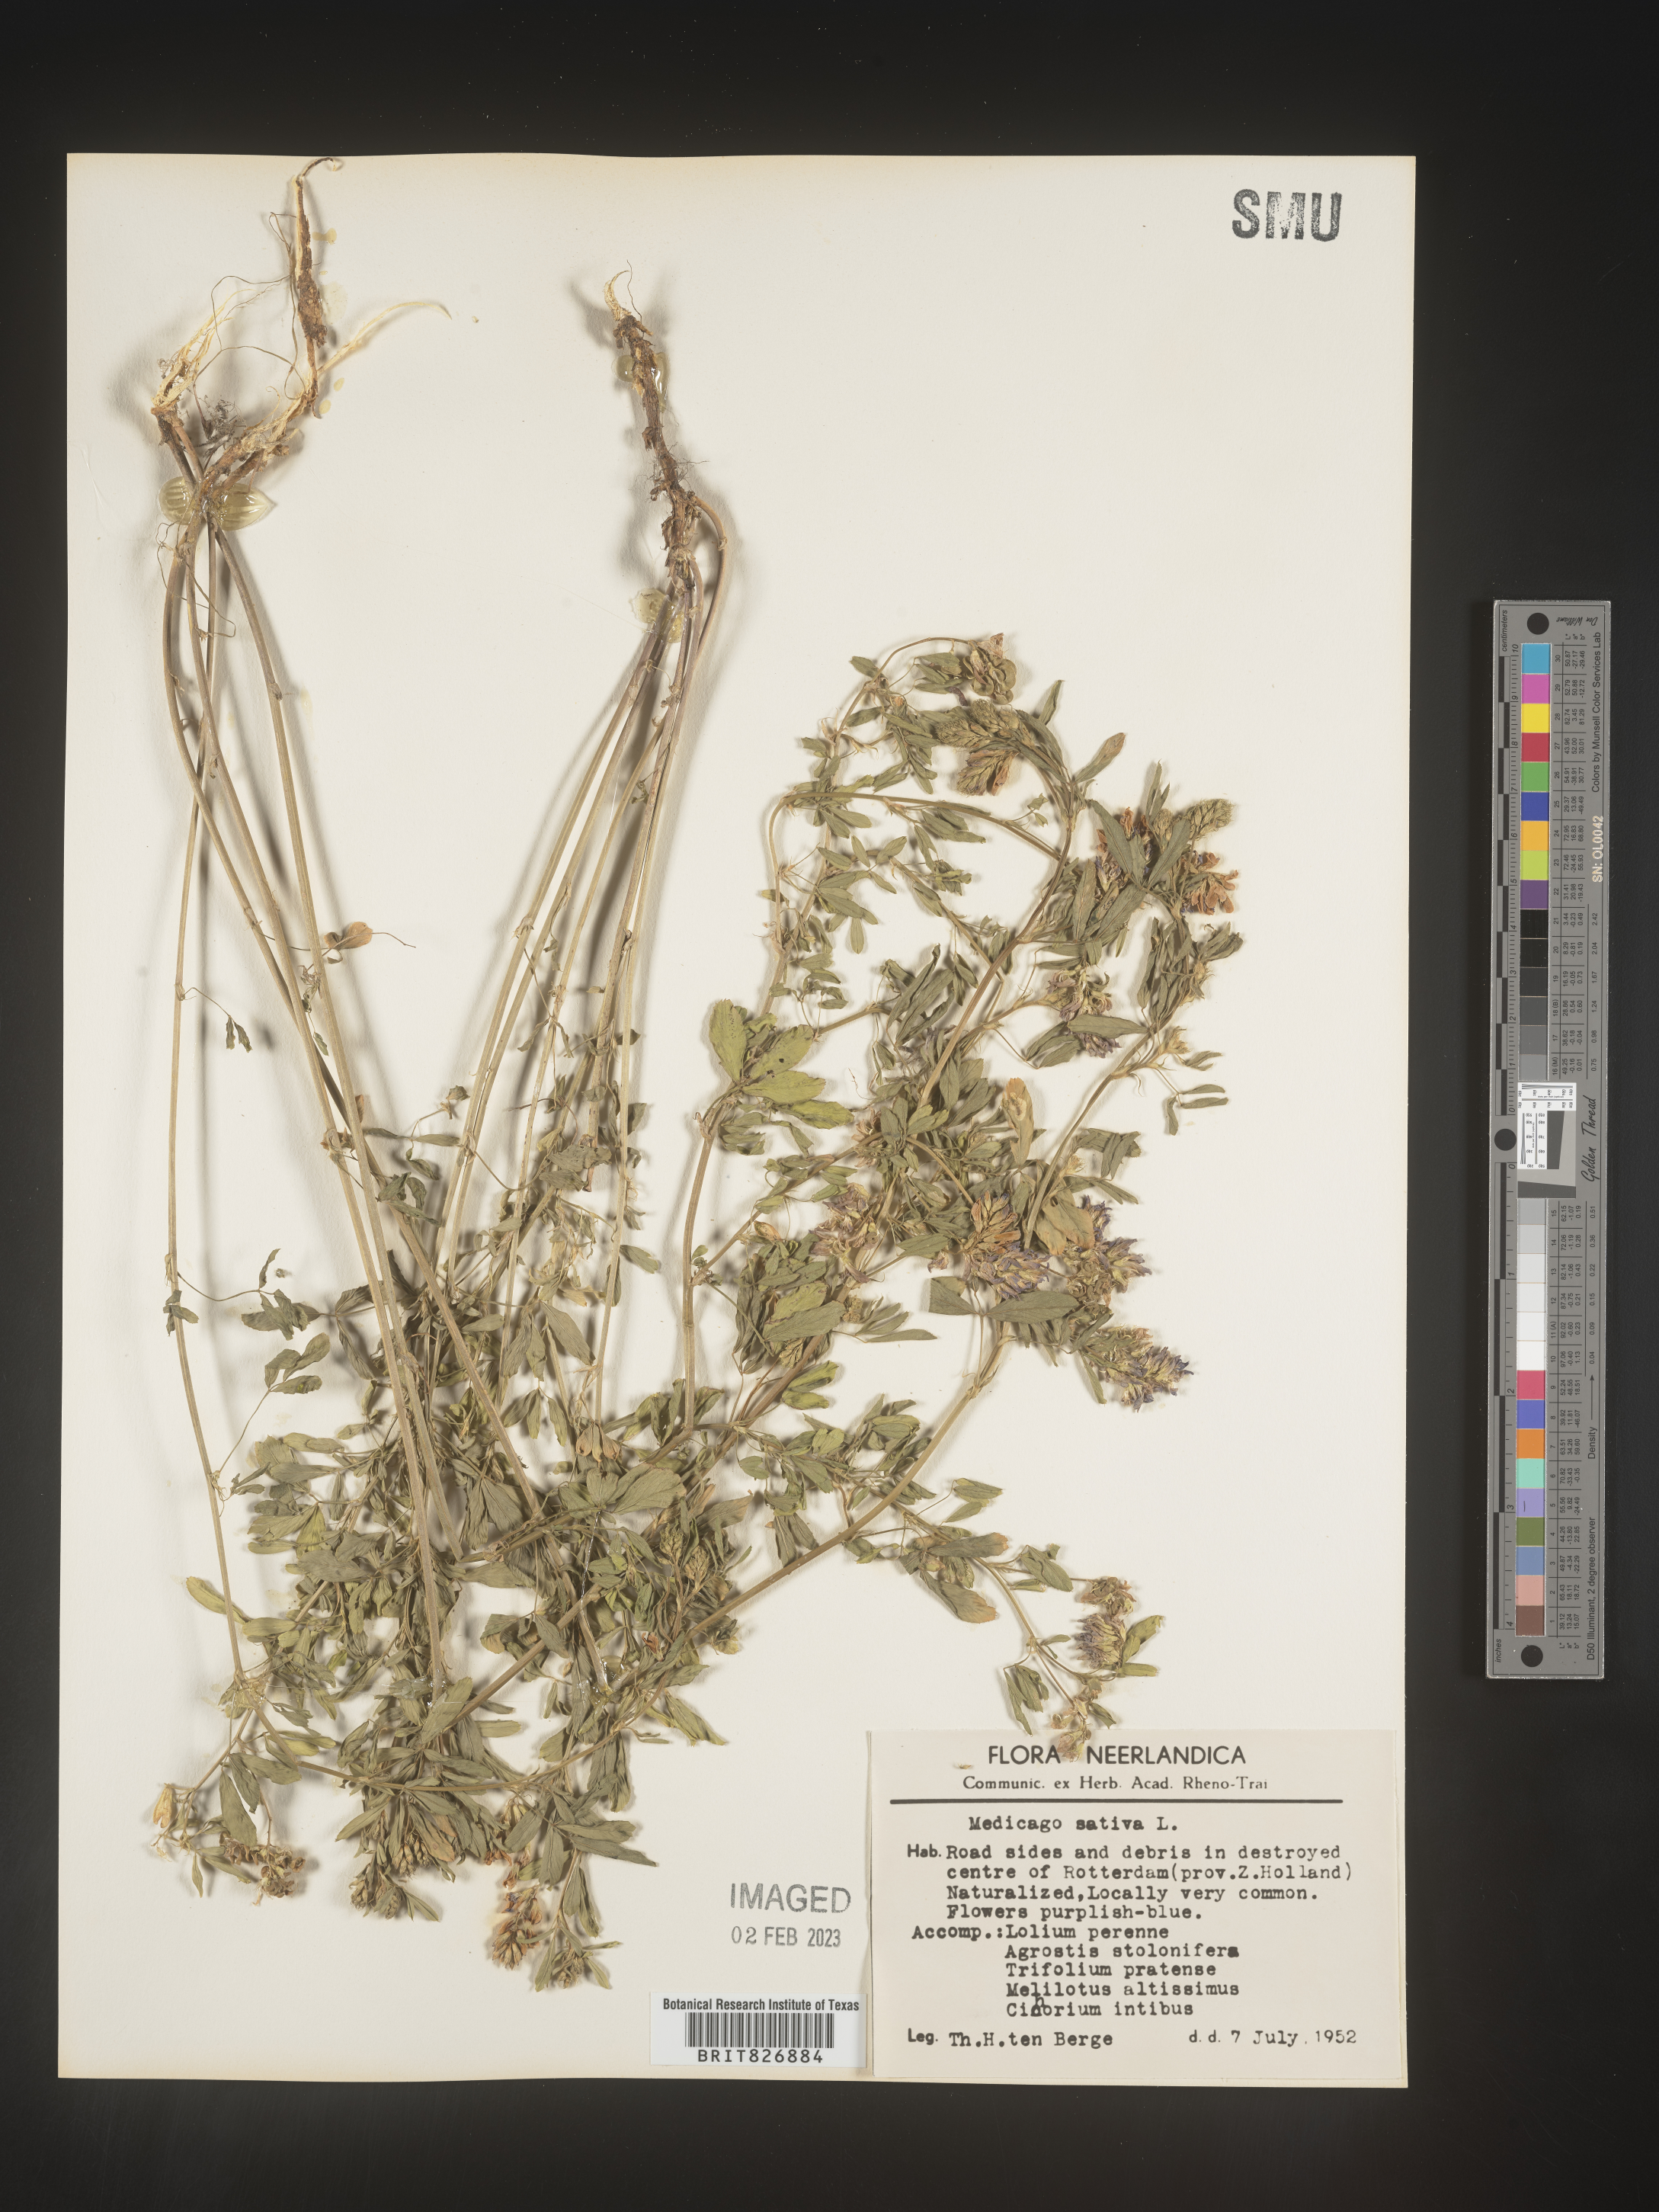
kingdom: Plantae
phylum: Tracheophyta
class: Magnoliopsida
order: Fabales
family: Fabaceae
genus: Medicago
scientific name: Medicago
